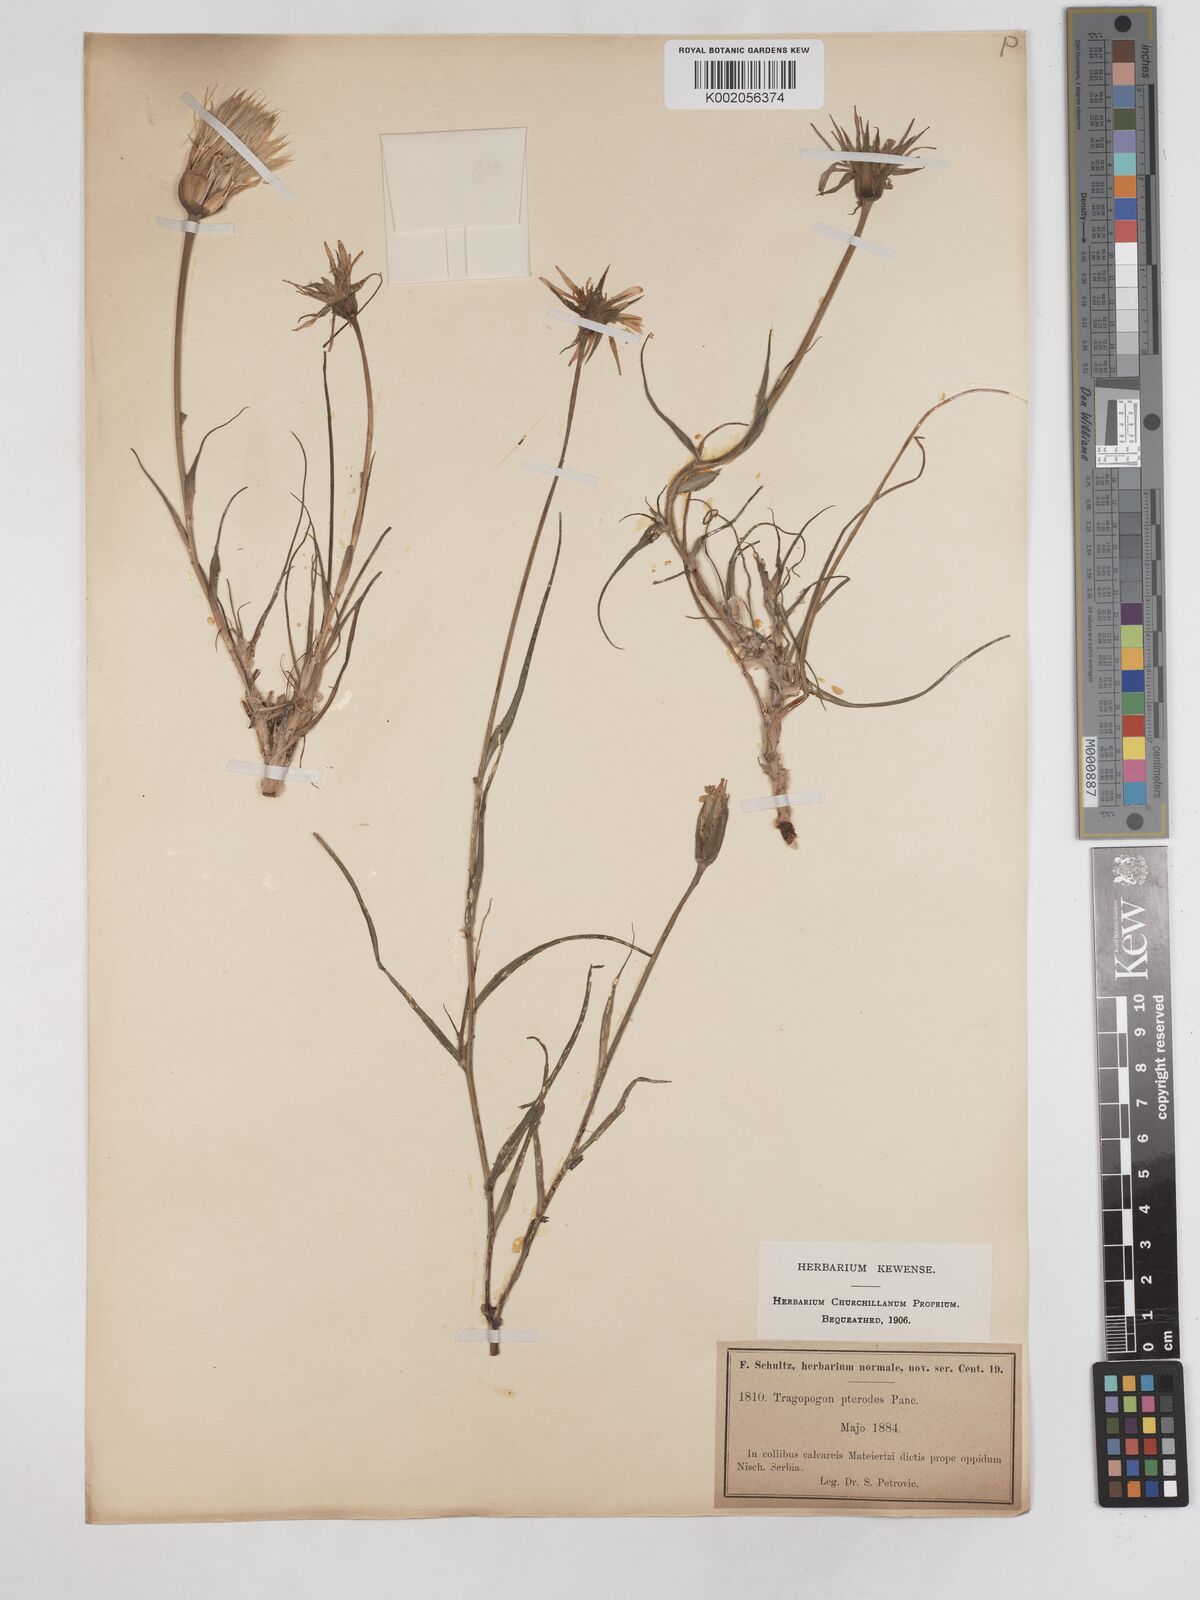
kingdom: Plantae
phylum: Tracheophyta
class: Magnoliopsida
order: Asterales
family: Asteraceae
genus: Tragopogon
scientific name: Tragopogon pterodes
